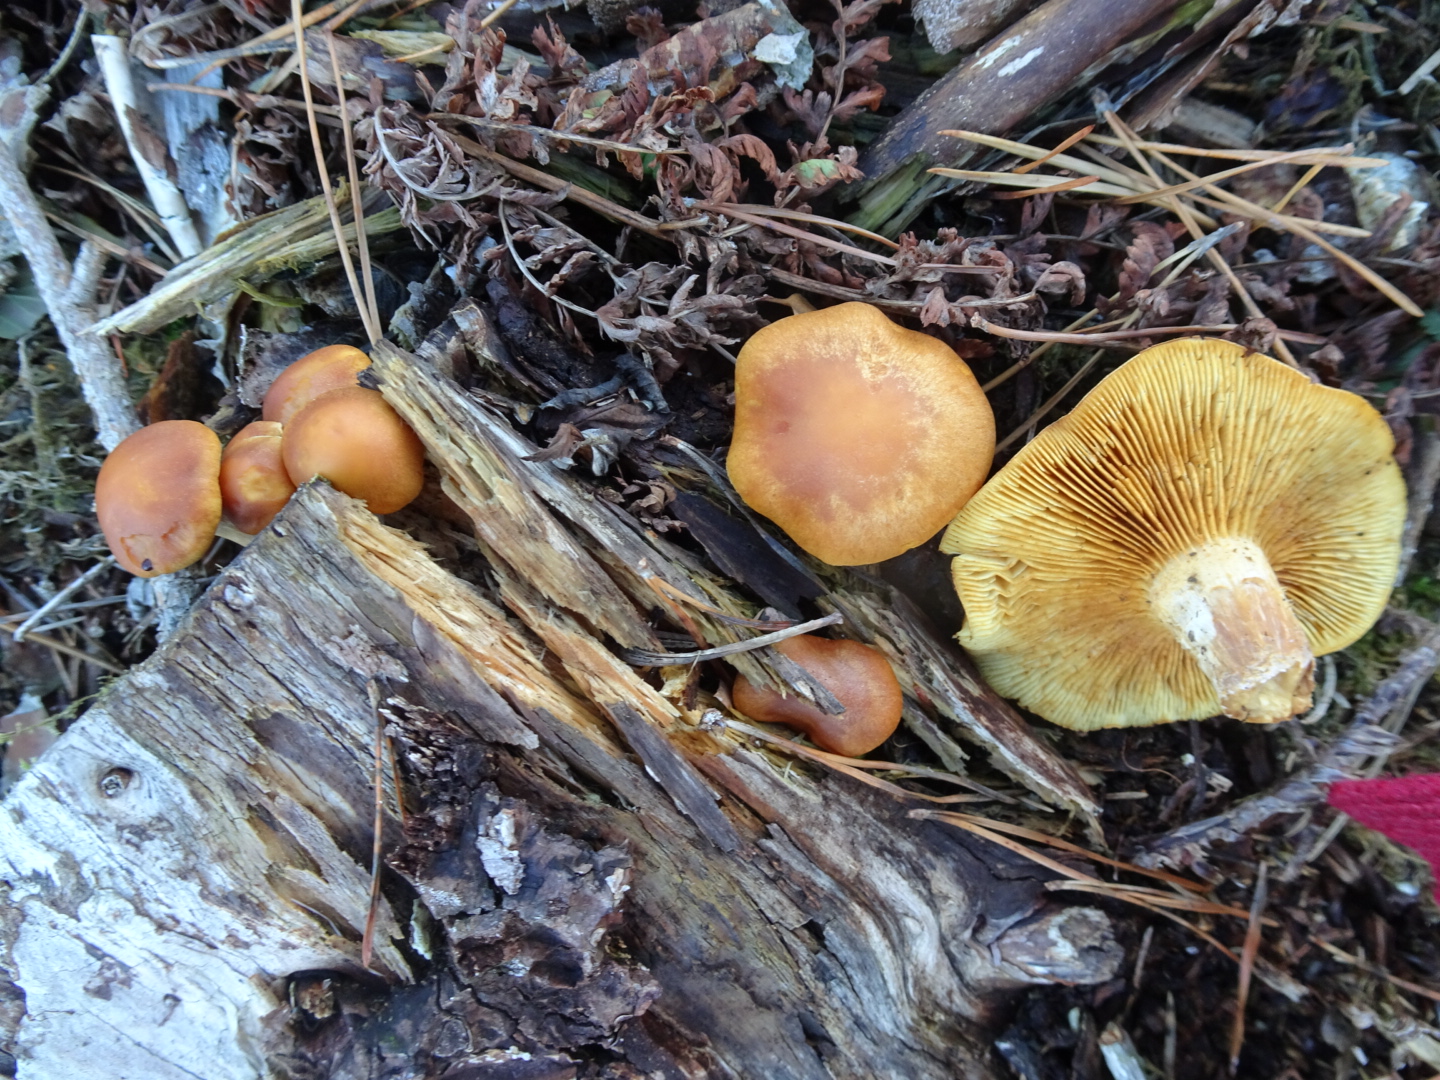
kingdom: Fungi
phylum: Basidiomycota
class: Agaricomycetes
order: Agaricales
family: Hymenogastraceae
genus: Gymnopilus
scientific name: Gymnopilus penetrans
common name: plettet flammehat
